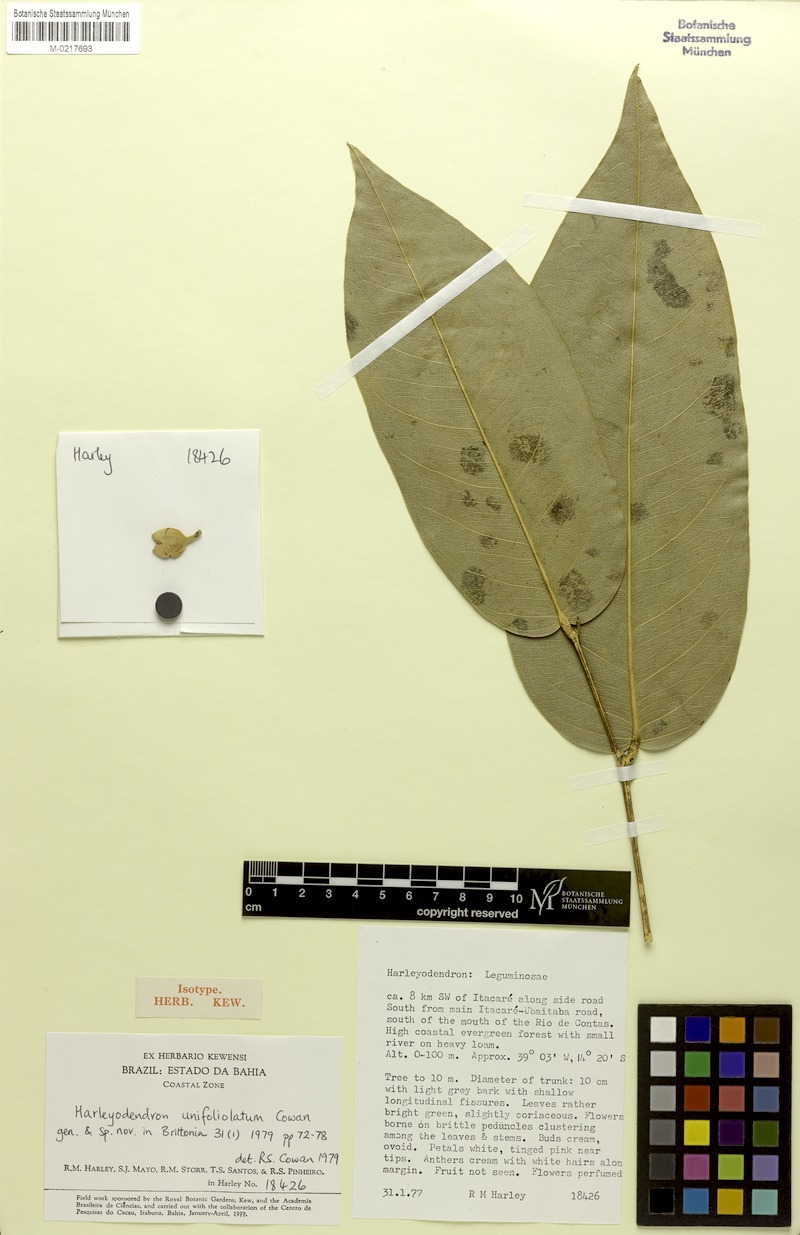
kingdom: Plantae
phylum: Tracheophyta
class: Magnoliopsida
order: Fabales
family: Fabaceae
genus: Harleyodendron
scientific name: Harleyodendron unifoliolatum
